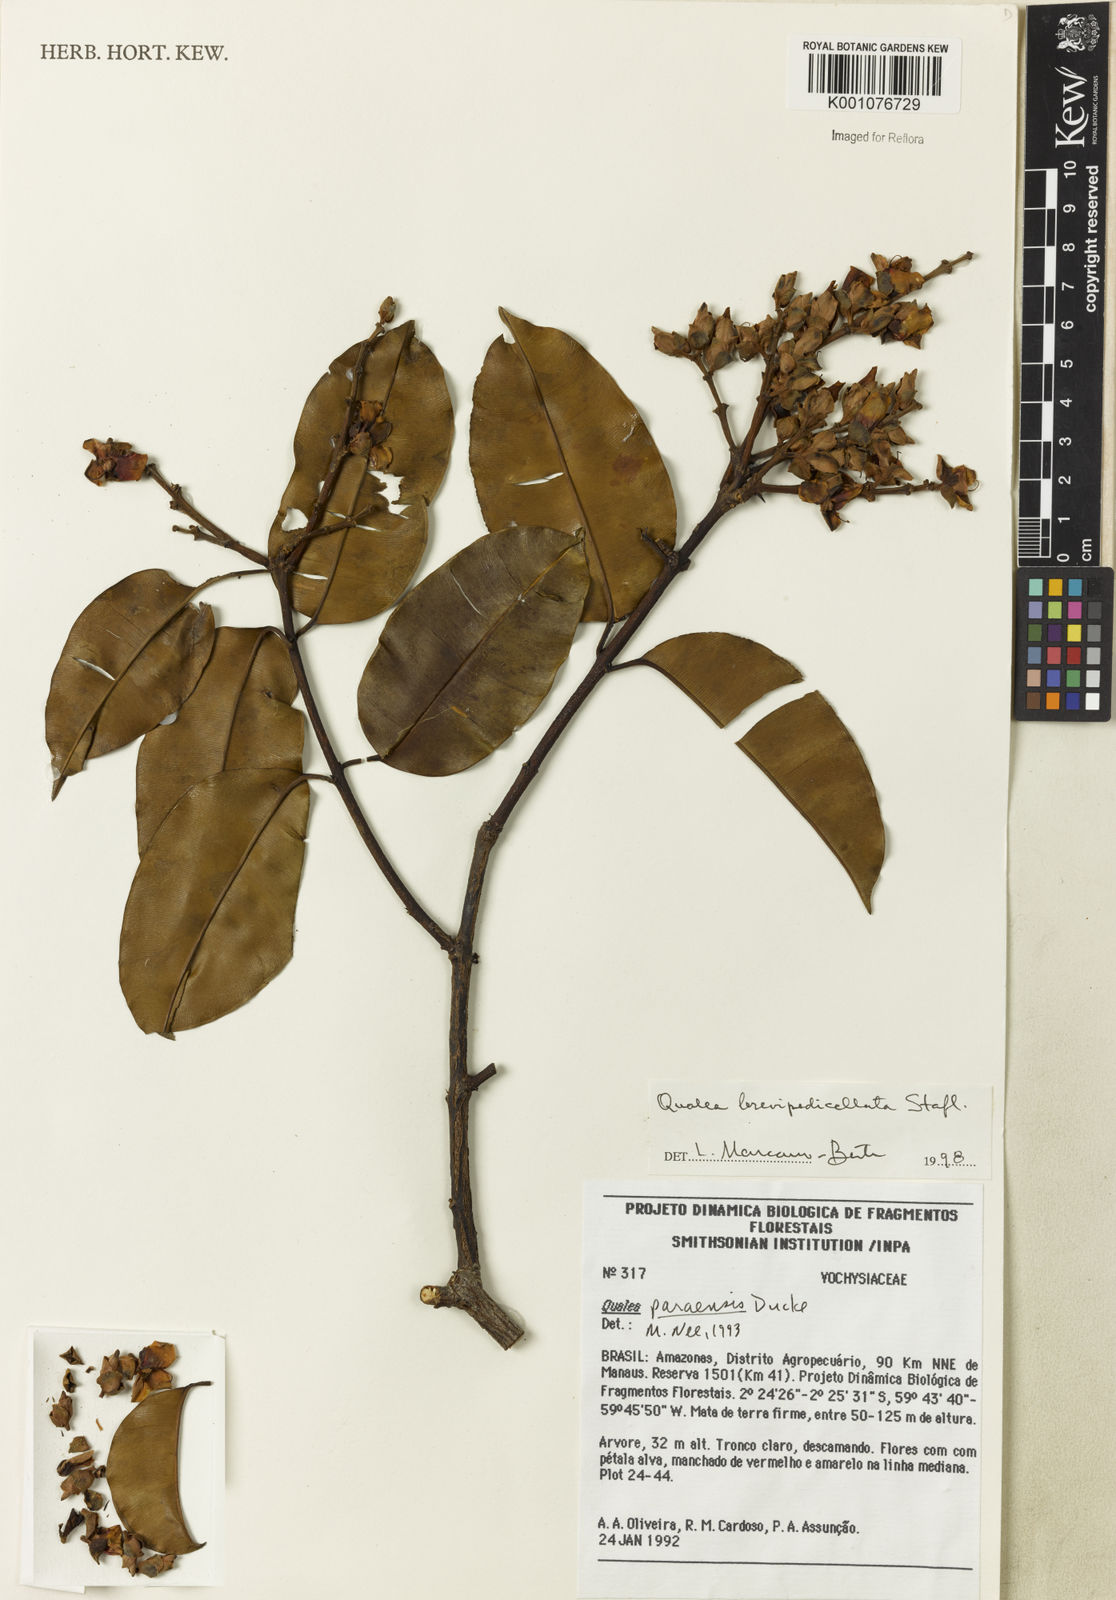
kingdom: Plantae
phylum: Tracheophyta
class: Magnoliopsida
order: Myrtales
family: Vochysiaceae
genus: Qualea
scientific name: Qualea brevipedicellata
